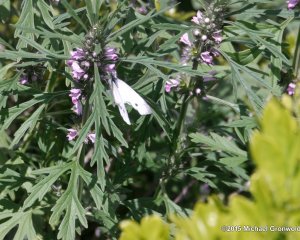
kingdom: Animalia
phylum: Arthropoda
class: Insecta
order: Lepidoptera
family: Pieridae
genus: Pieris
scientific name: Pieris rapae
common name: Cabbage White
